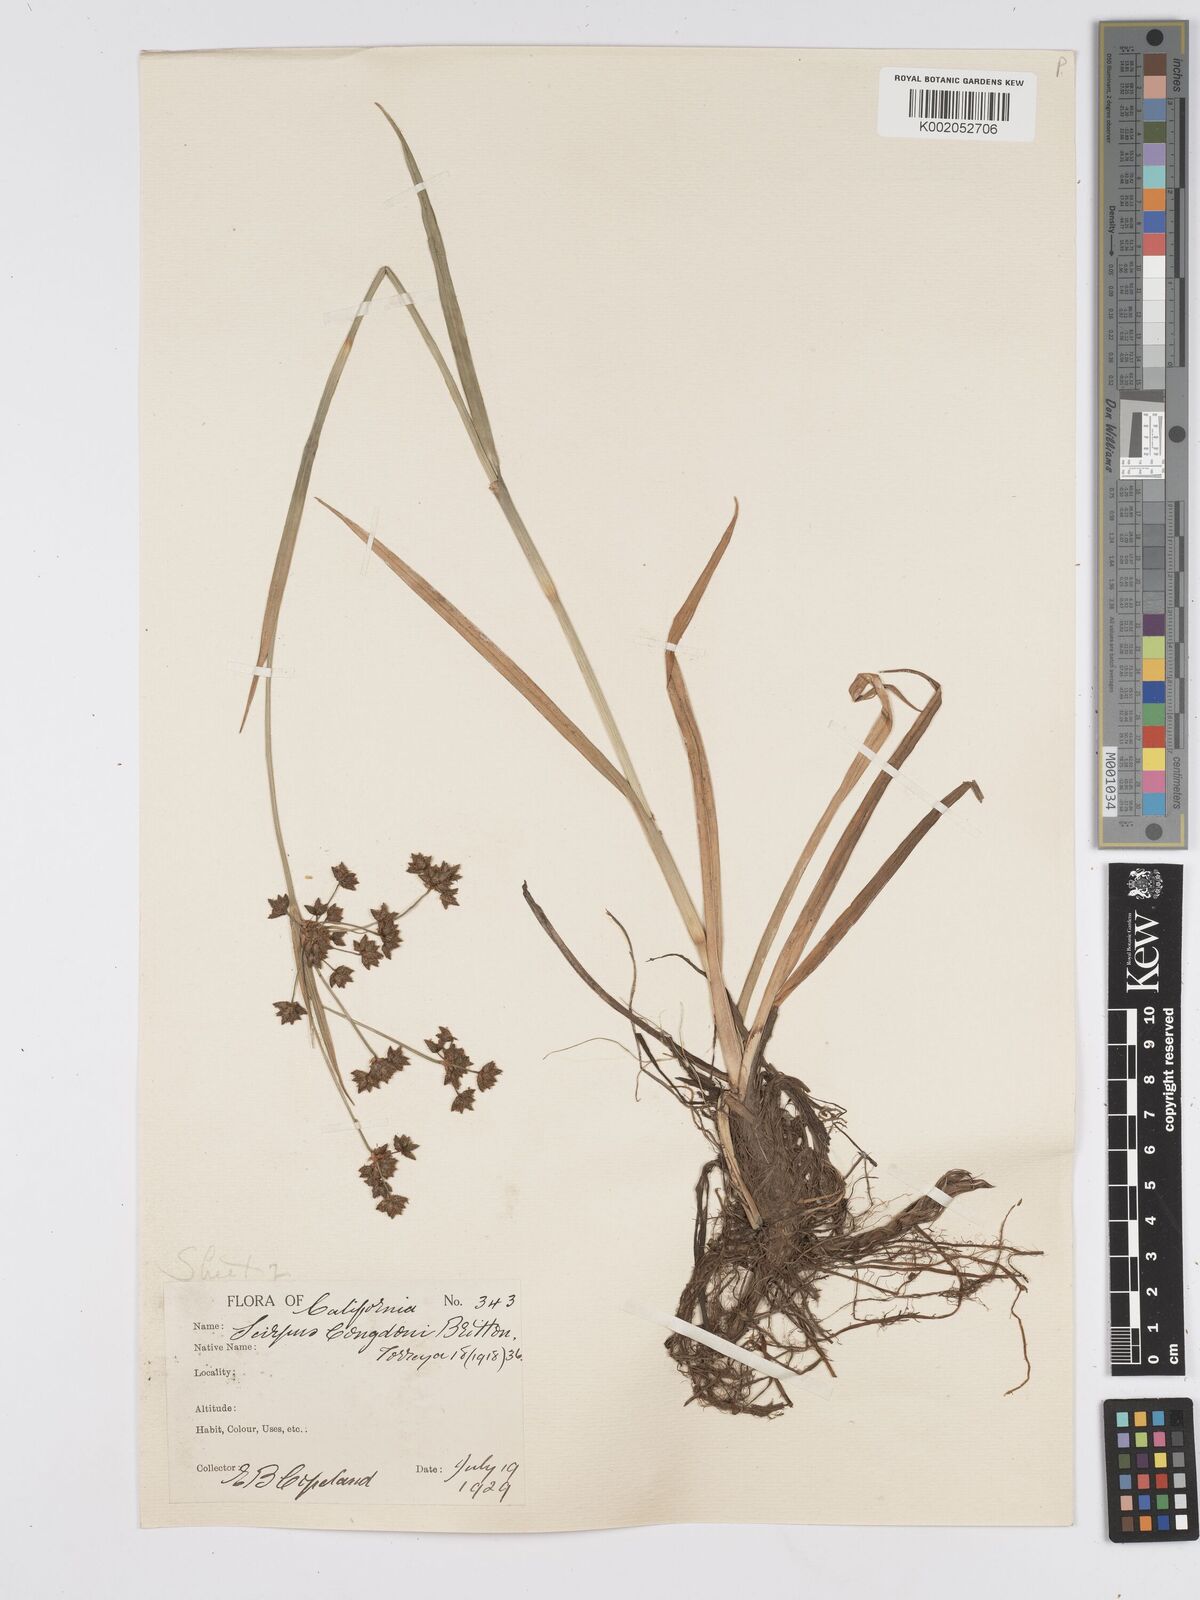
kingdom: Plantae
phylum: Tracheophyta
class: Liliopsida
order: Poales
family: Cyperaceae
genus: Scirpus
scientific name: Scirpus congdonii
